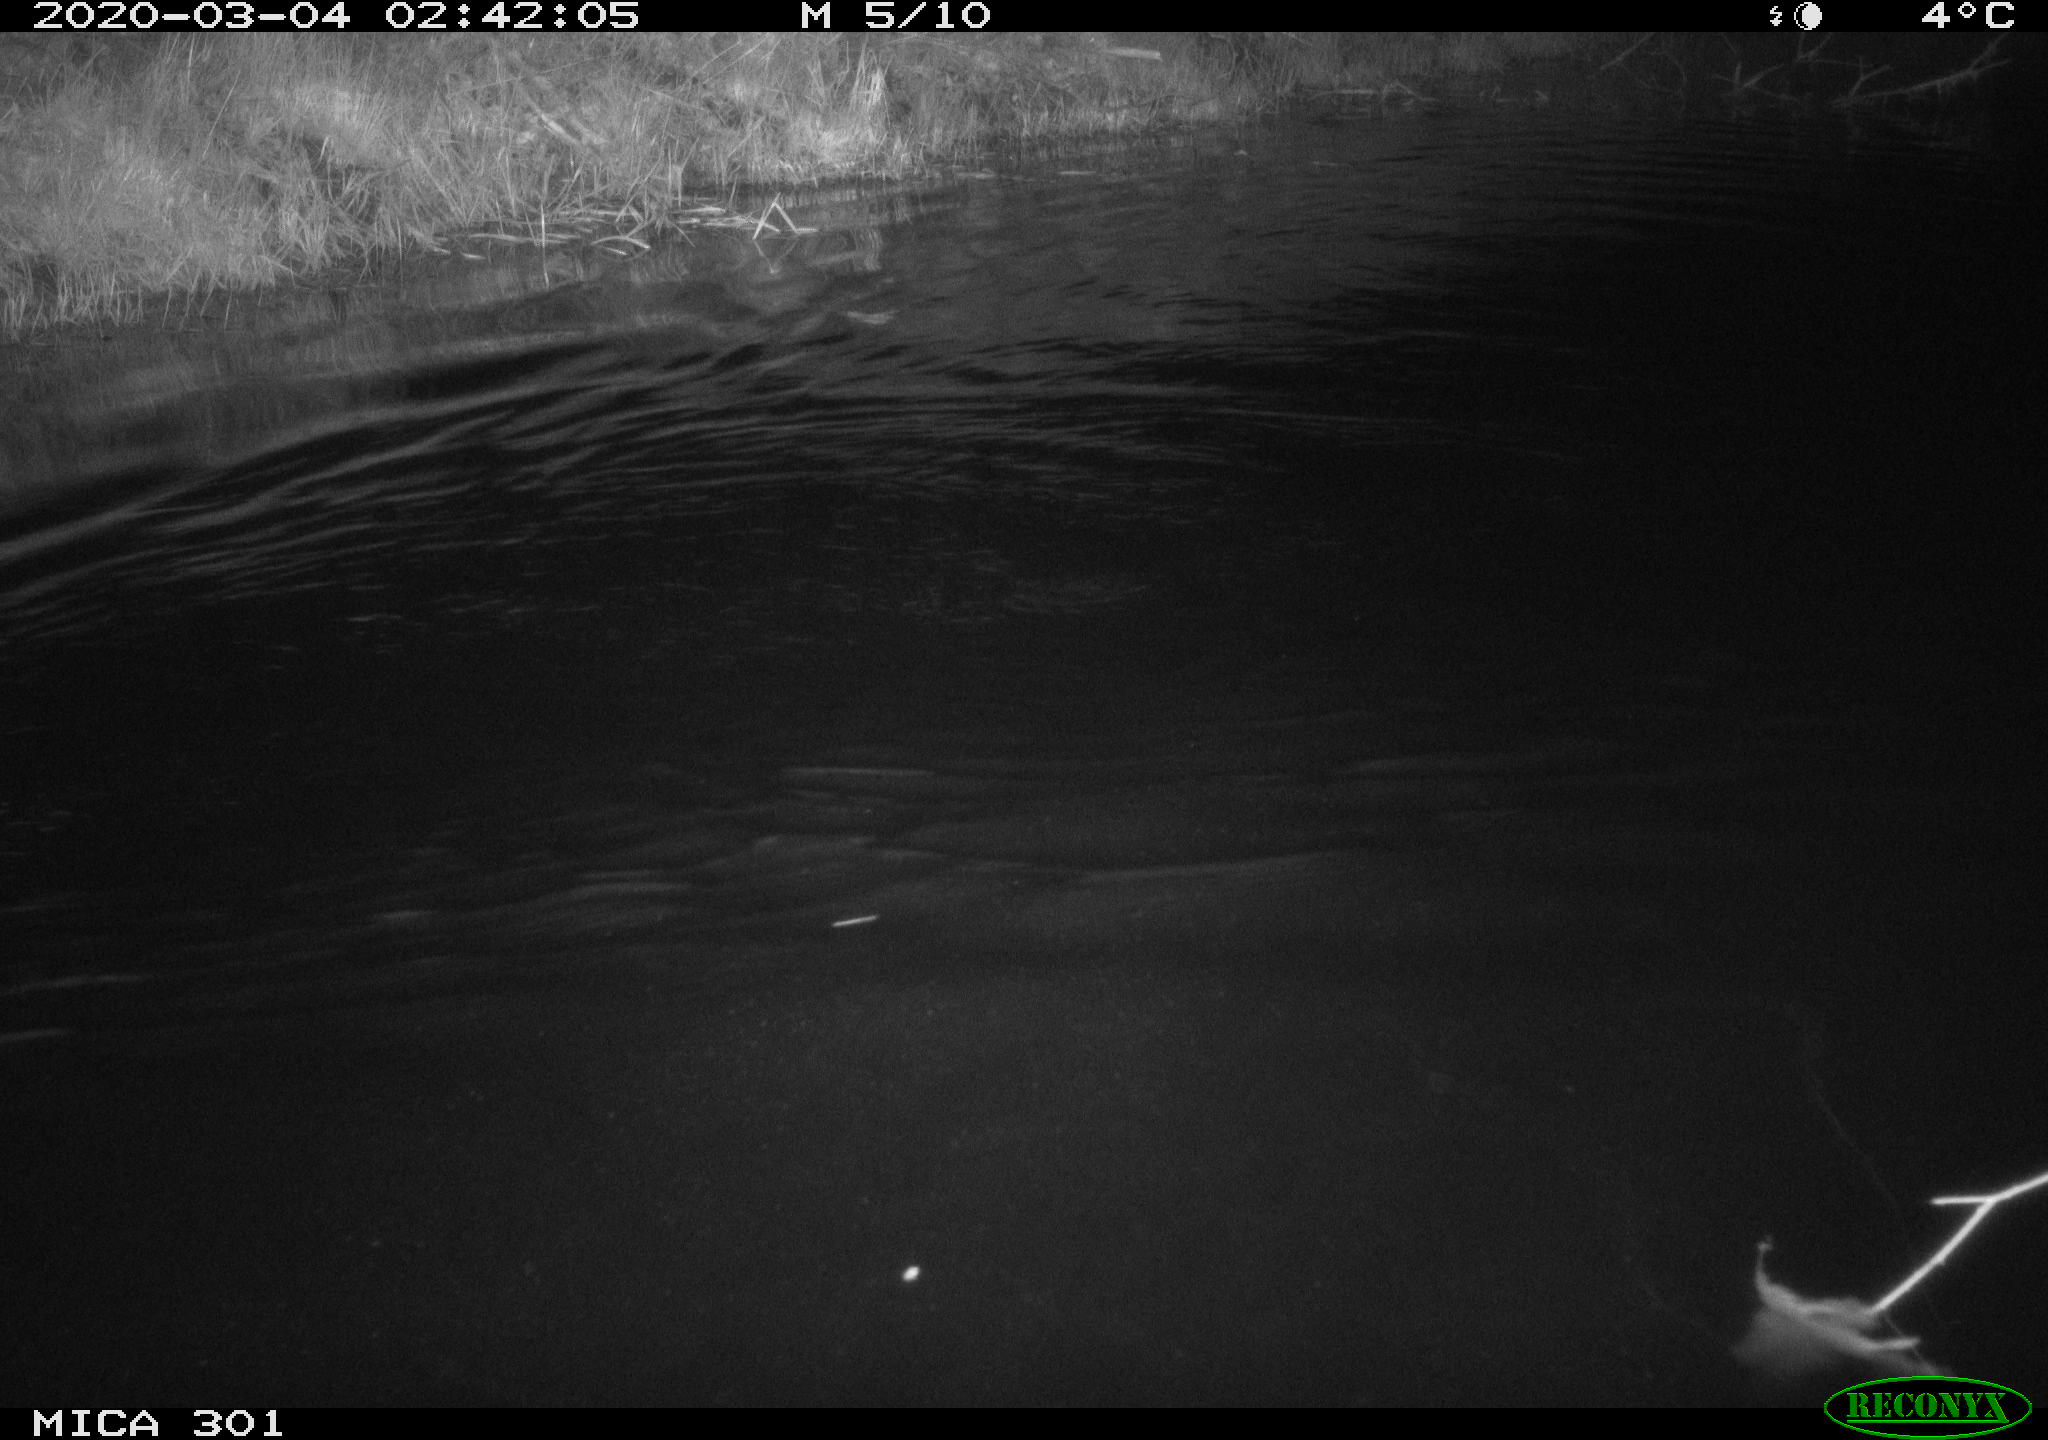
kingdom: Animalia
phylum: Chordata
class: Mammalia
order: Rodentia
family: Castoridae
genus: Castor
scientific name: Castor fiber
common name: Eurasian beaver
